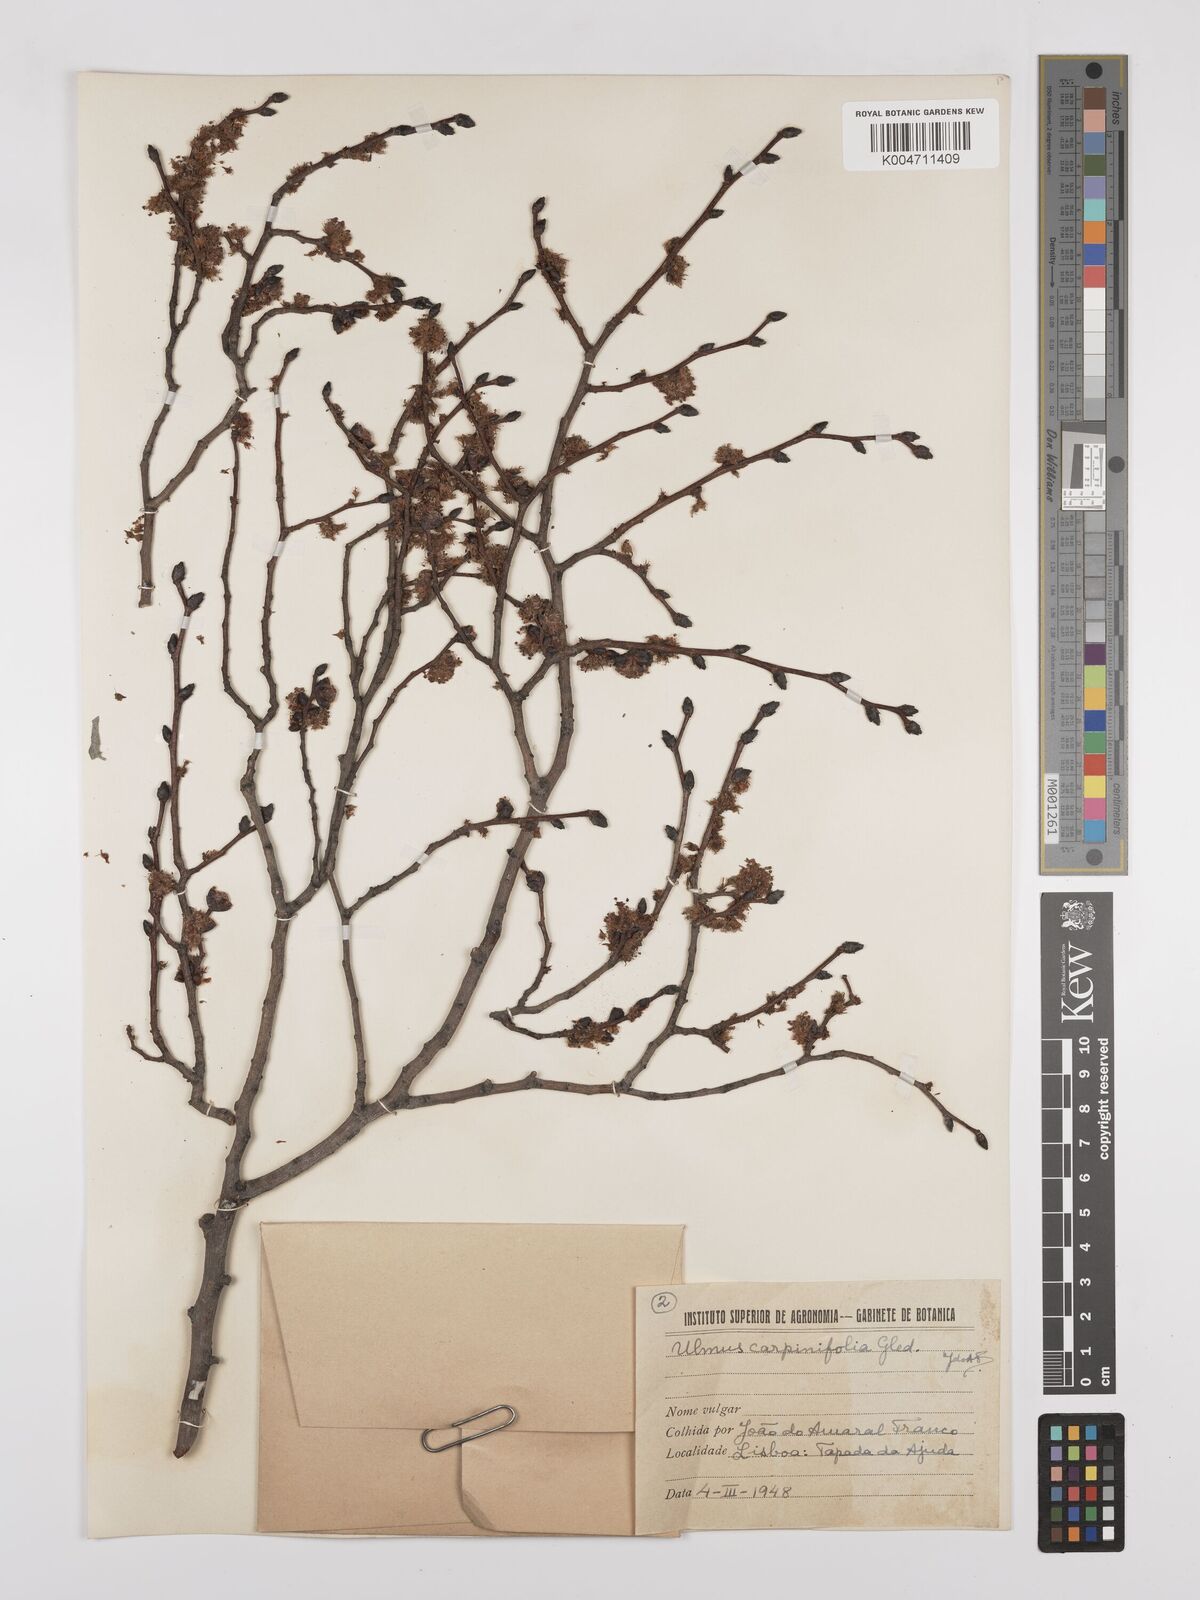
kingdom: Plantae
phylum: Tracheophyta
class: Magnoliopsida
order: Rosales
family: Ulmaceae
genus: Ulmus
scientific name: Ulmus minor
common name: Small-leaved elm
